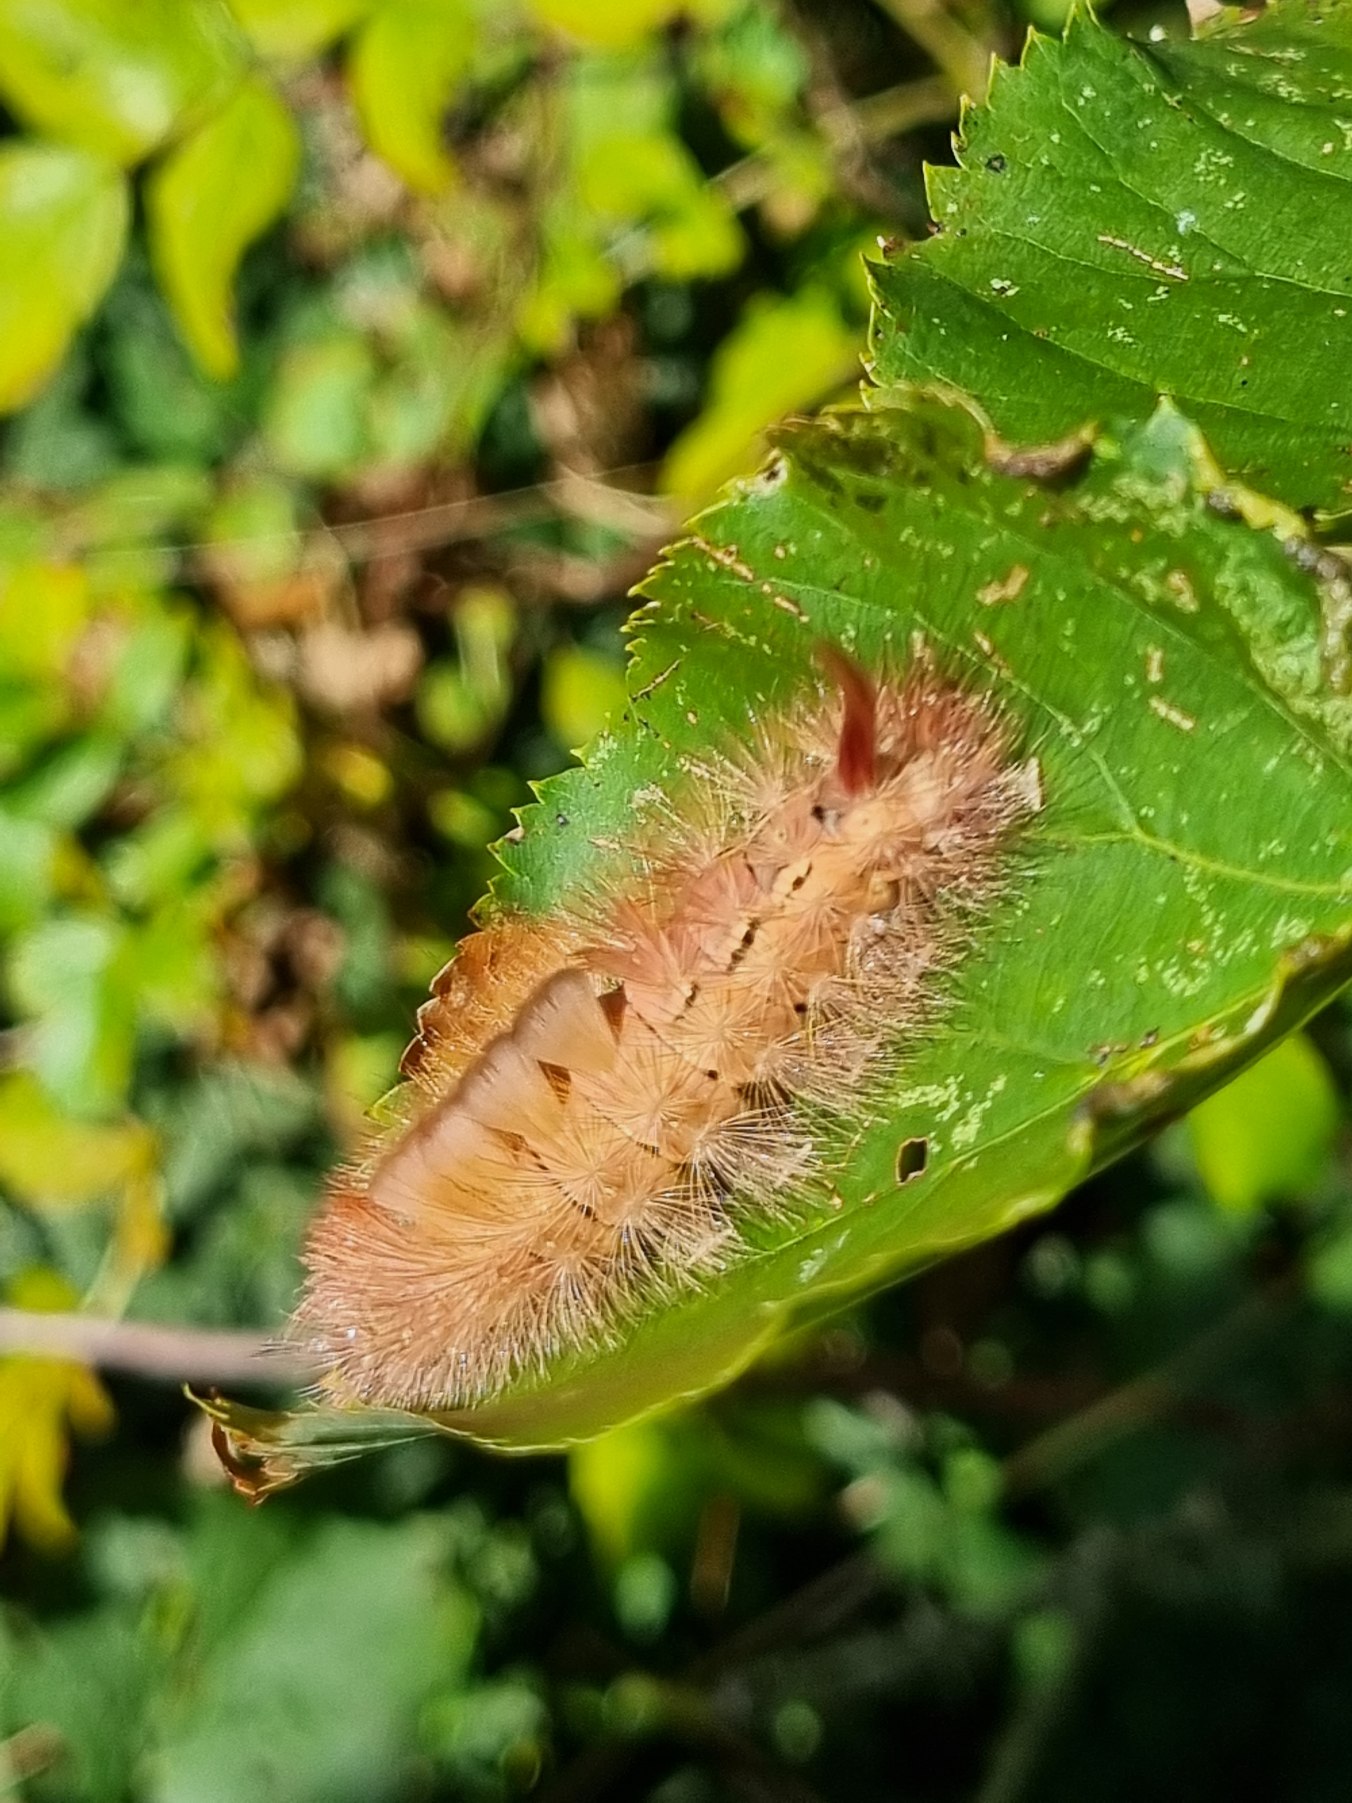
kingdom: Animalia
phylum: Arthropoda
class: Insecta
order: Lepidoptera
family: Erebidae
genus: Calliteara
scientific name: Calliteara pudibunda
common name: Bøgenonne
